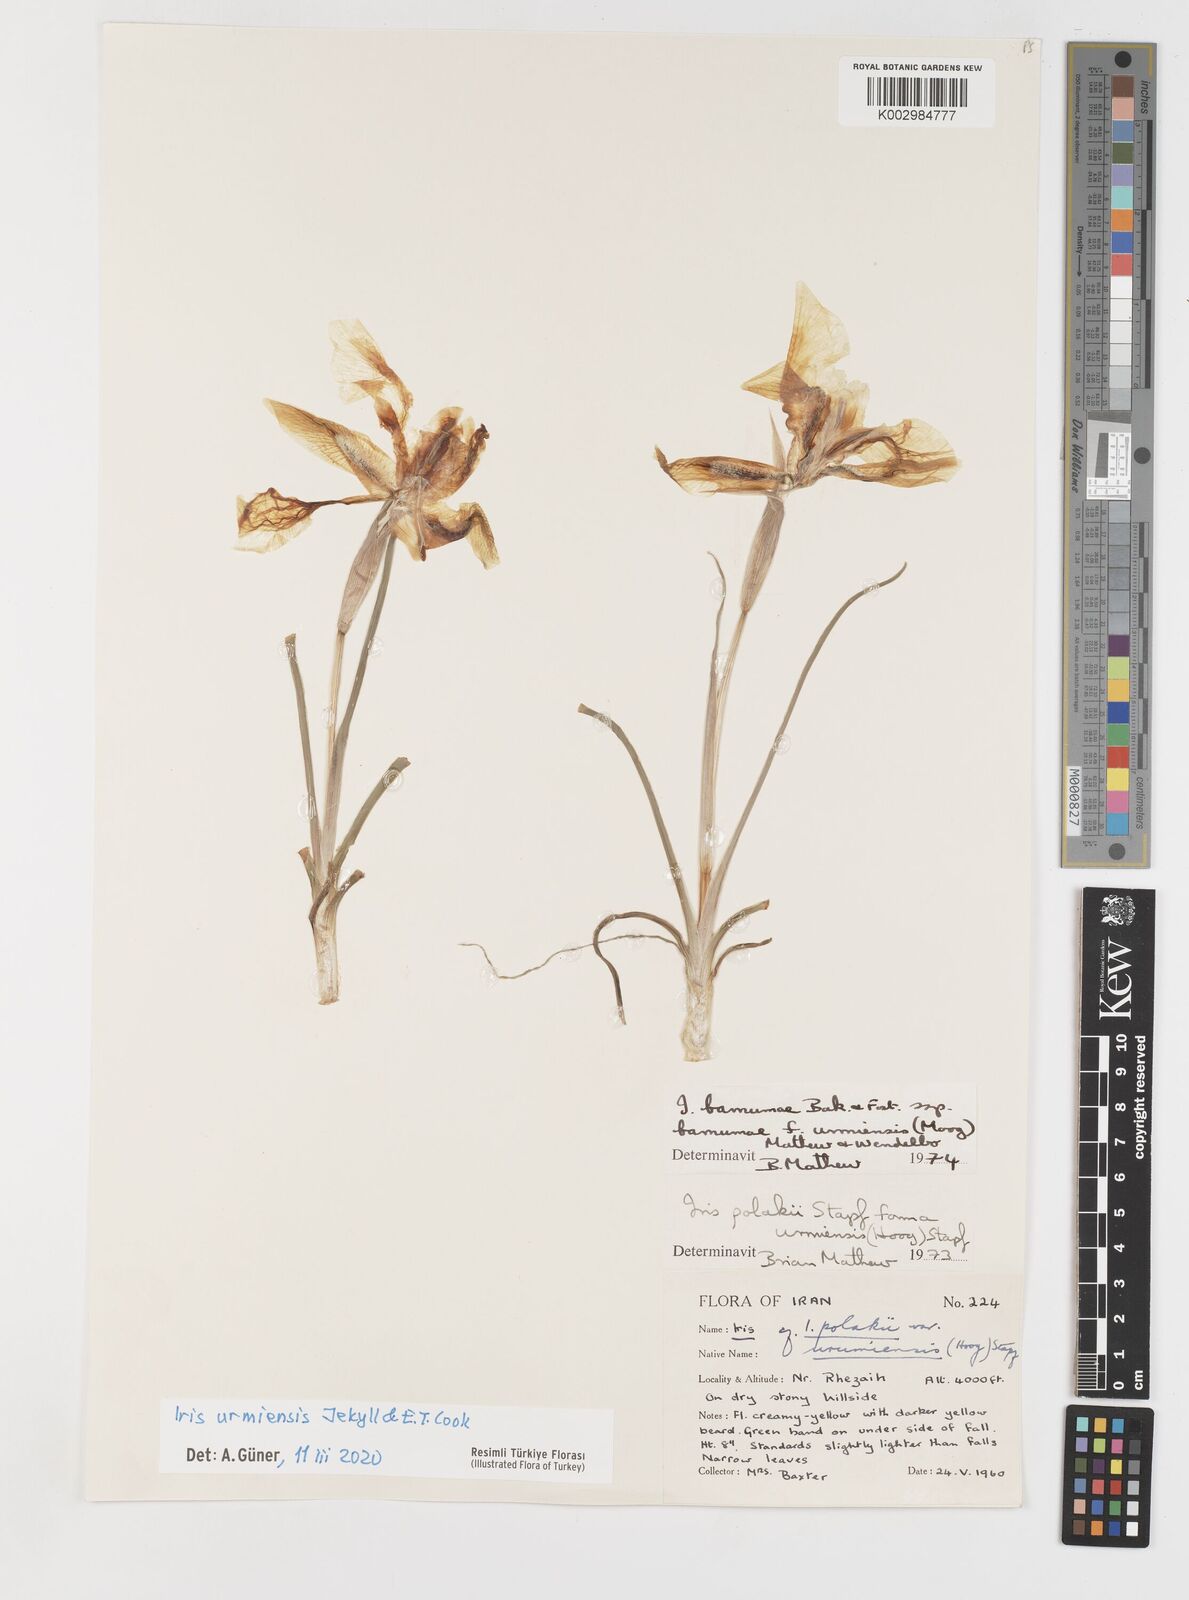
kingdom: Plantae
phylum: Tracheophyta
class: Liliopsida
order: Asparagales
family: Iridaceae
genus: Iris
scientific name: Iris urmiensis
